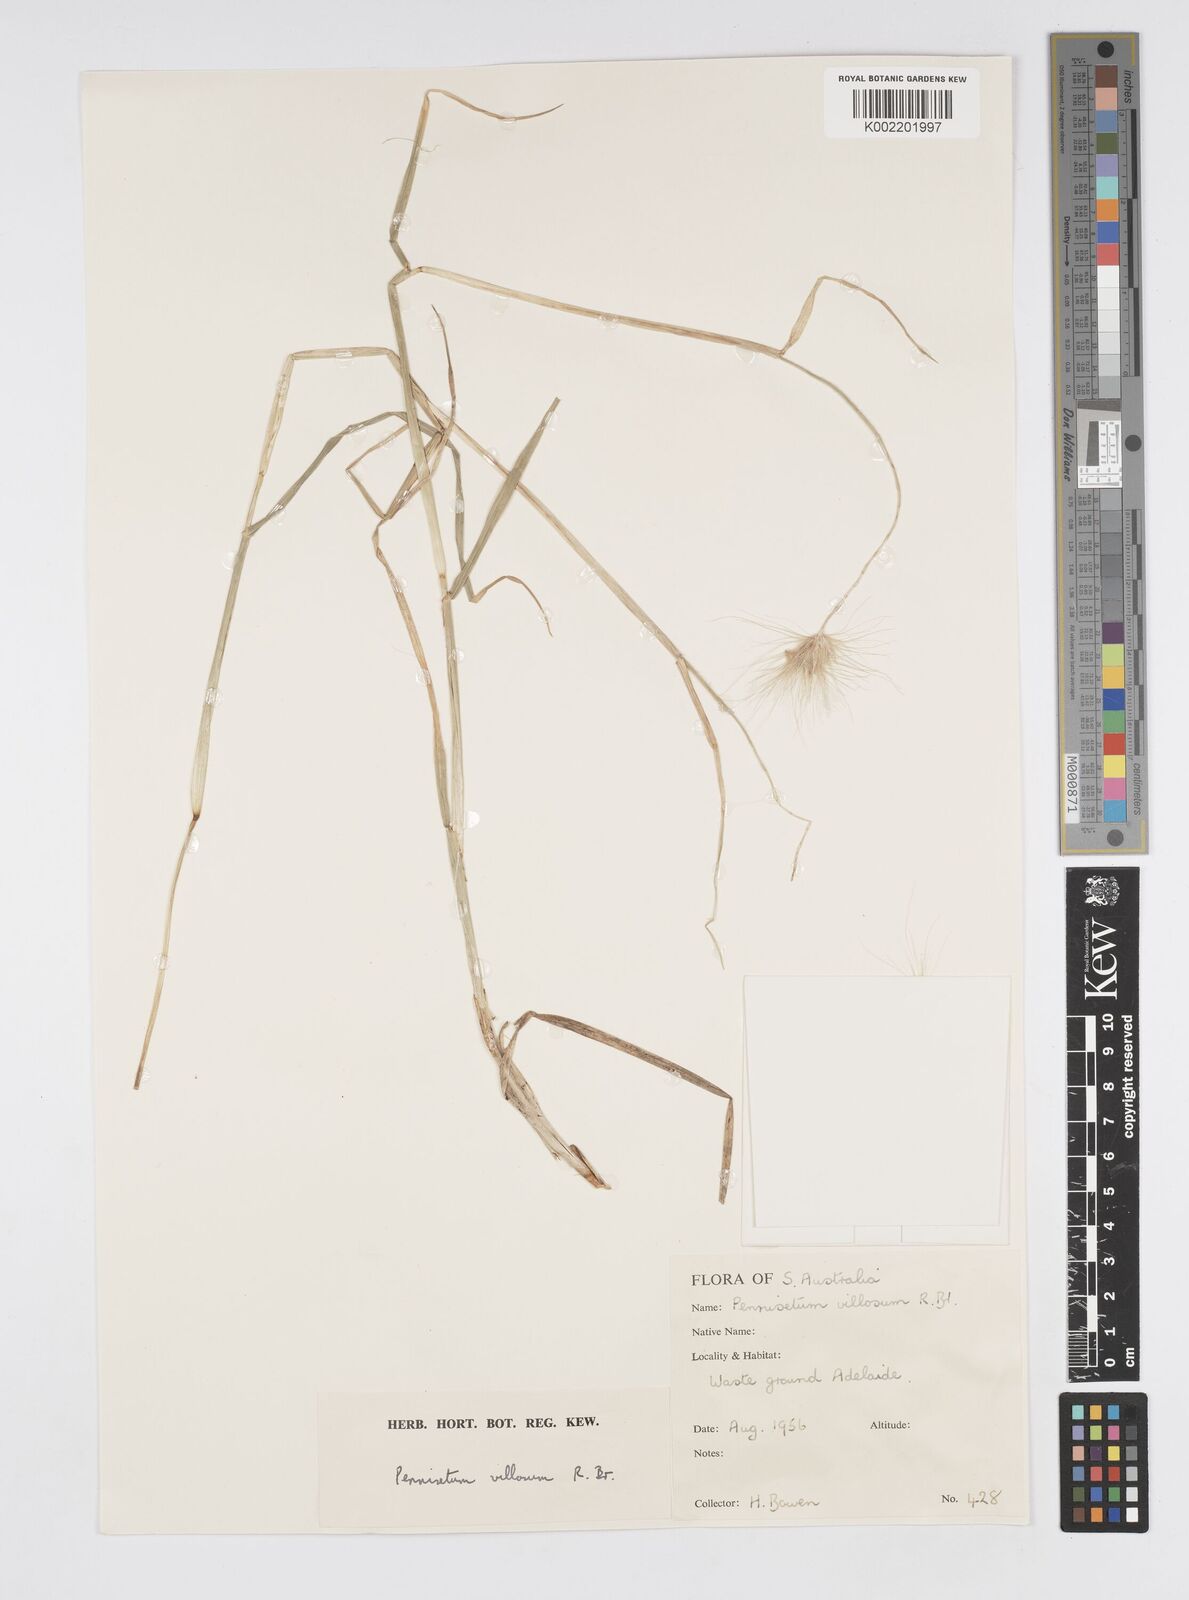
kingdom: Plantae
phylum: Tracheophyta
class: Liliopsida
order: Poales
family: Poaceae
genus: Cenchrus
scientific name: Cenchrus longisetus
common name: Feathertop
